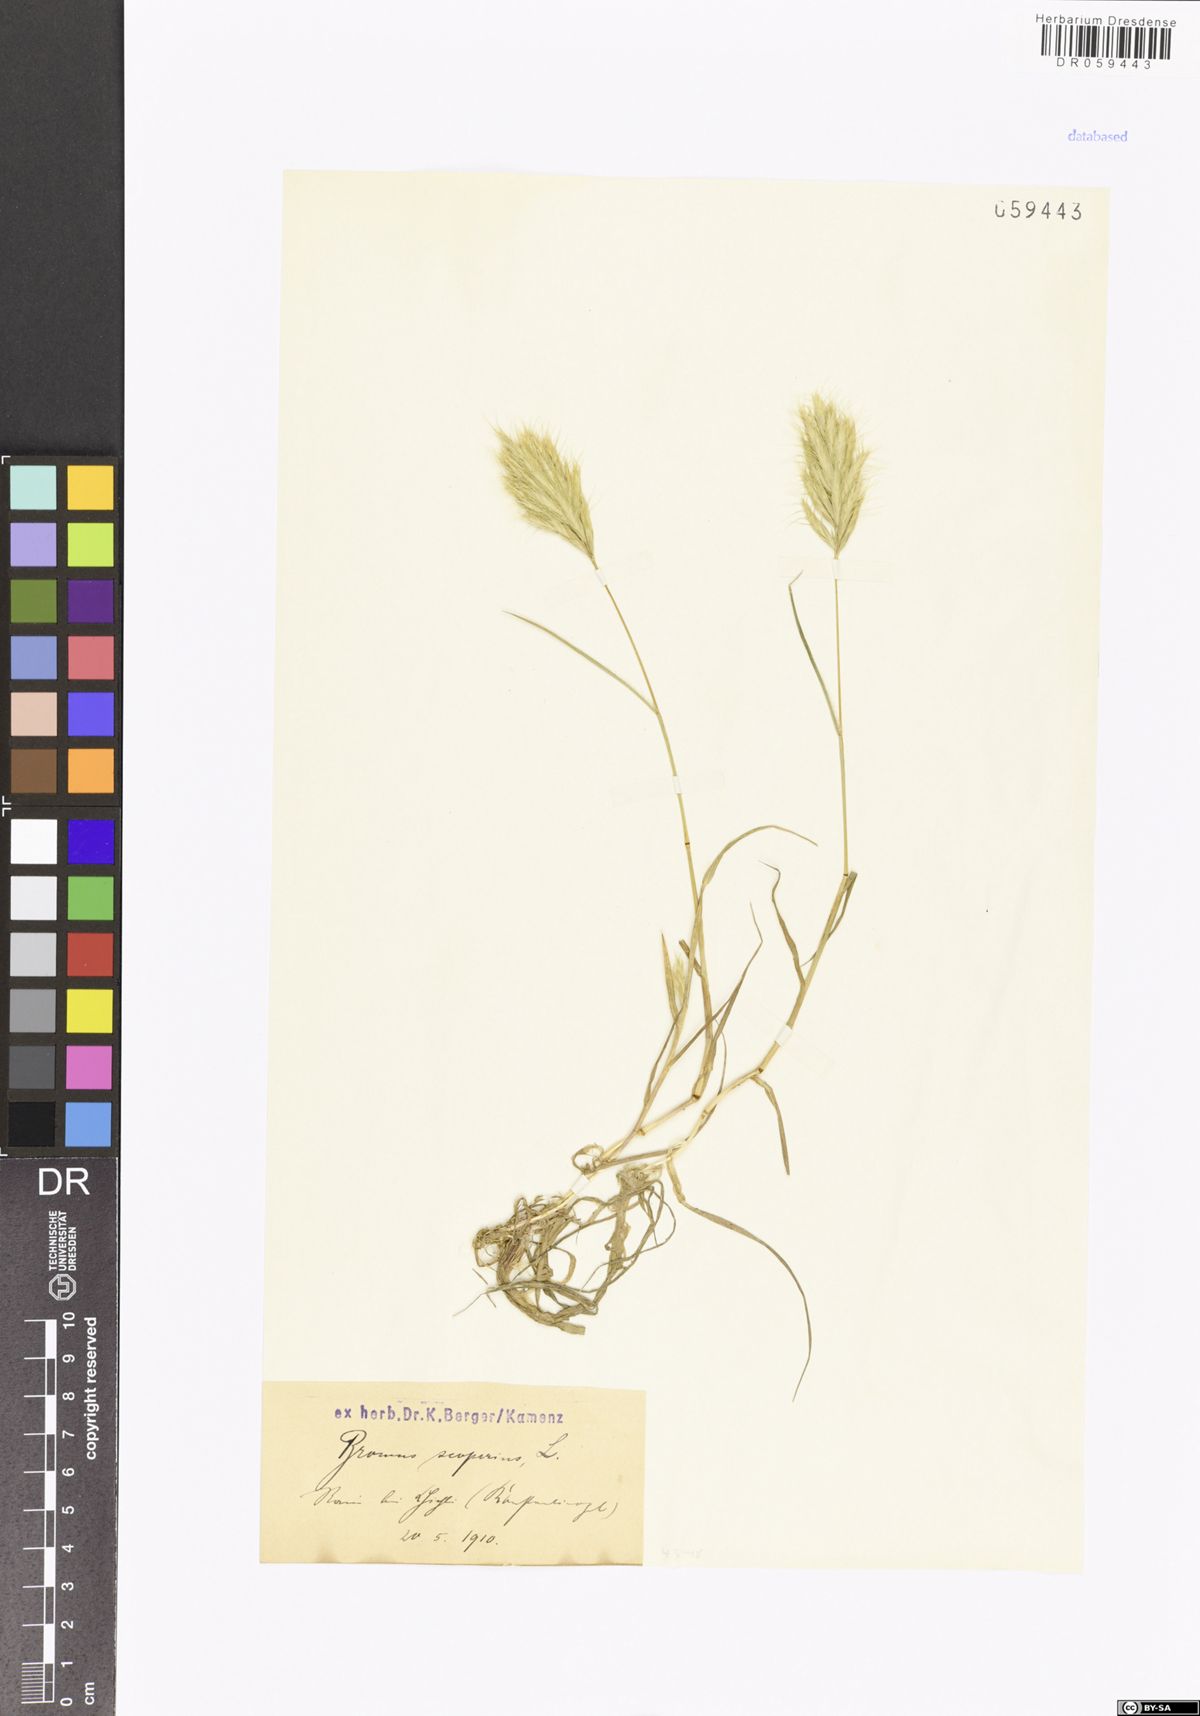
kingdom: Plantae
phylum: Tracheophyta
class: Liliopsida
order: Poales
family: Poaceae
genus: Bromus
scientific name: Bromus scoparius
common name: Broom brome
